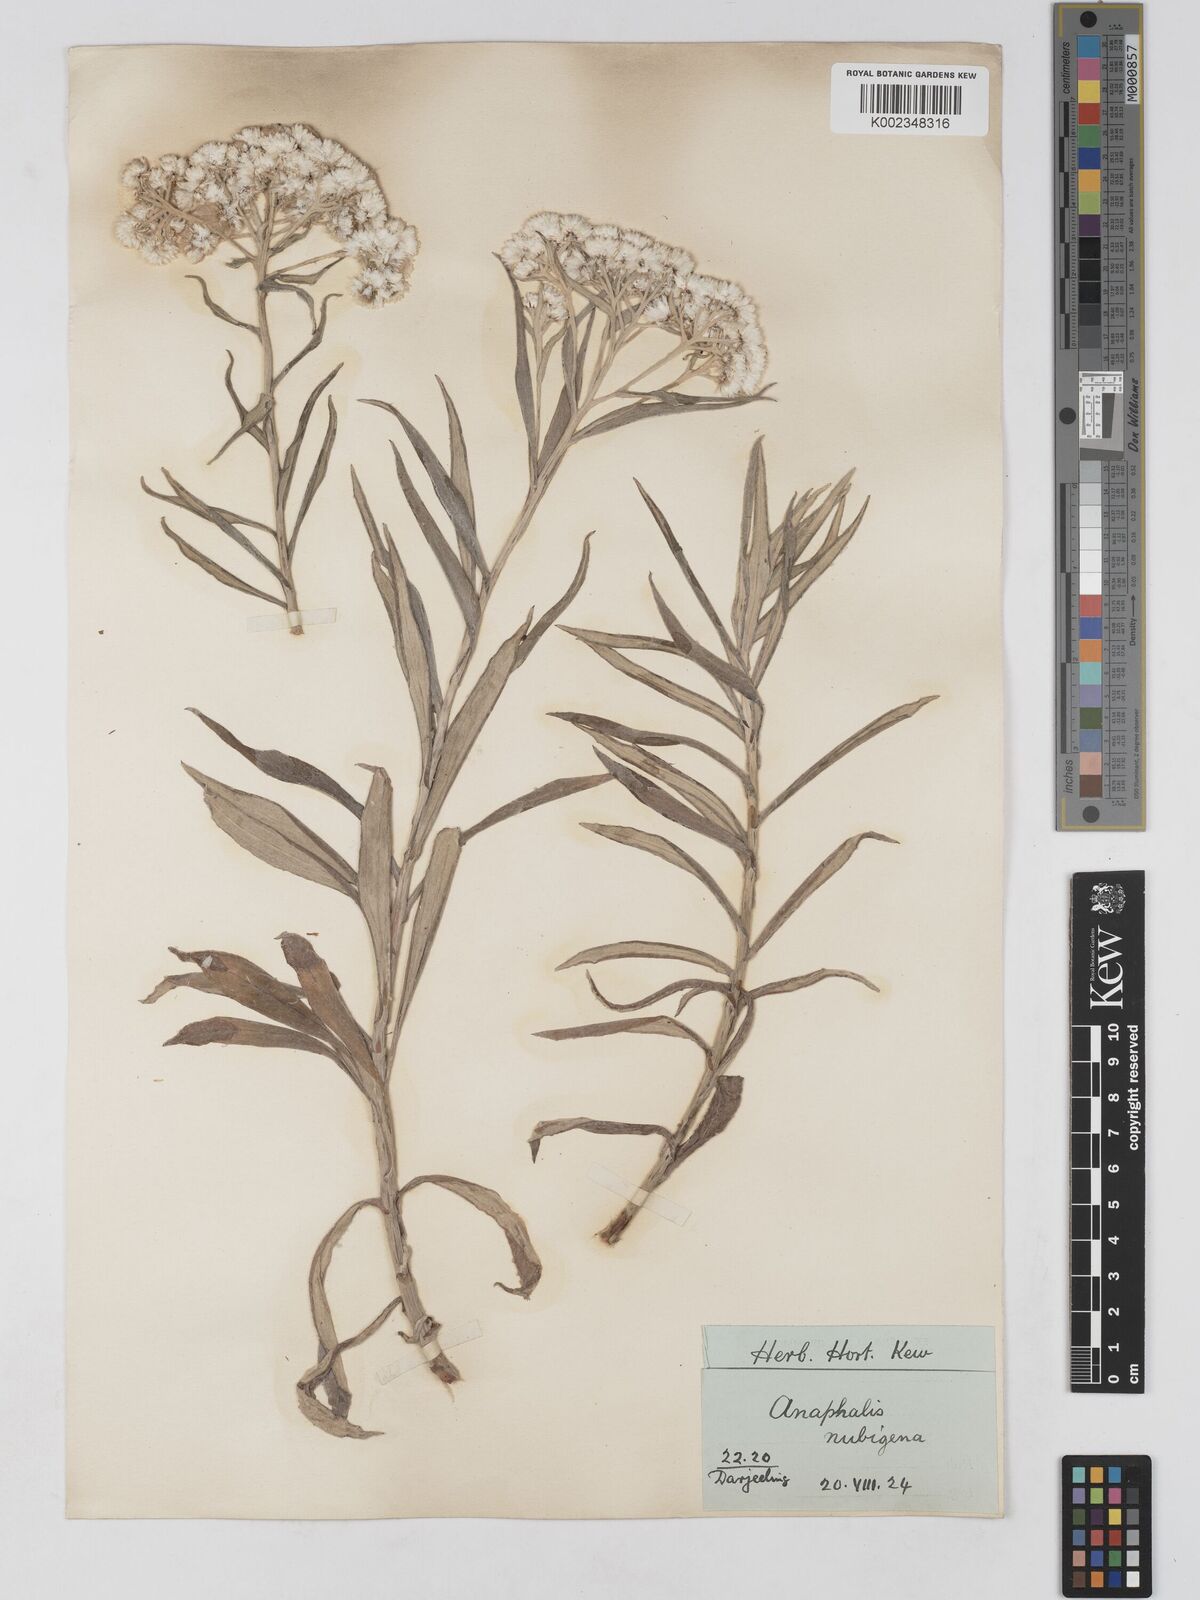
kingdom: Plantae
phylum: Tracheophyta
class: Magnoliopsida
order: Asterales
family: Asteraceae
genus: Anaphalis
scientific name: Anaphalis nepalensis
